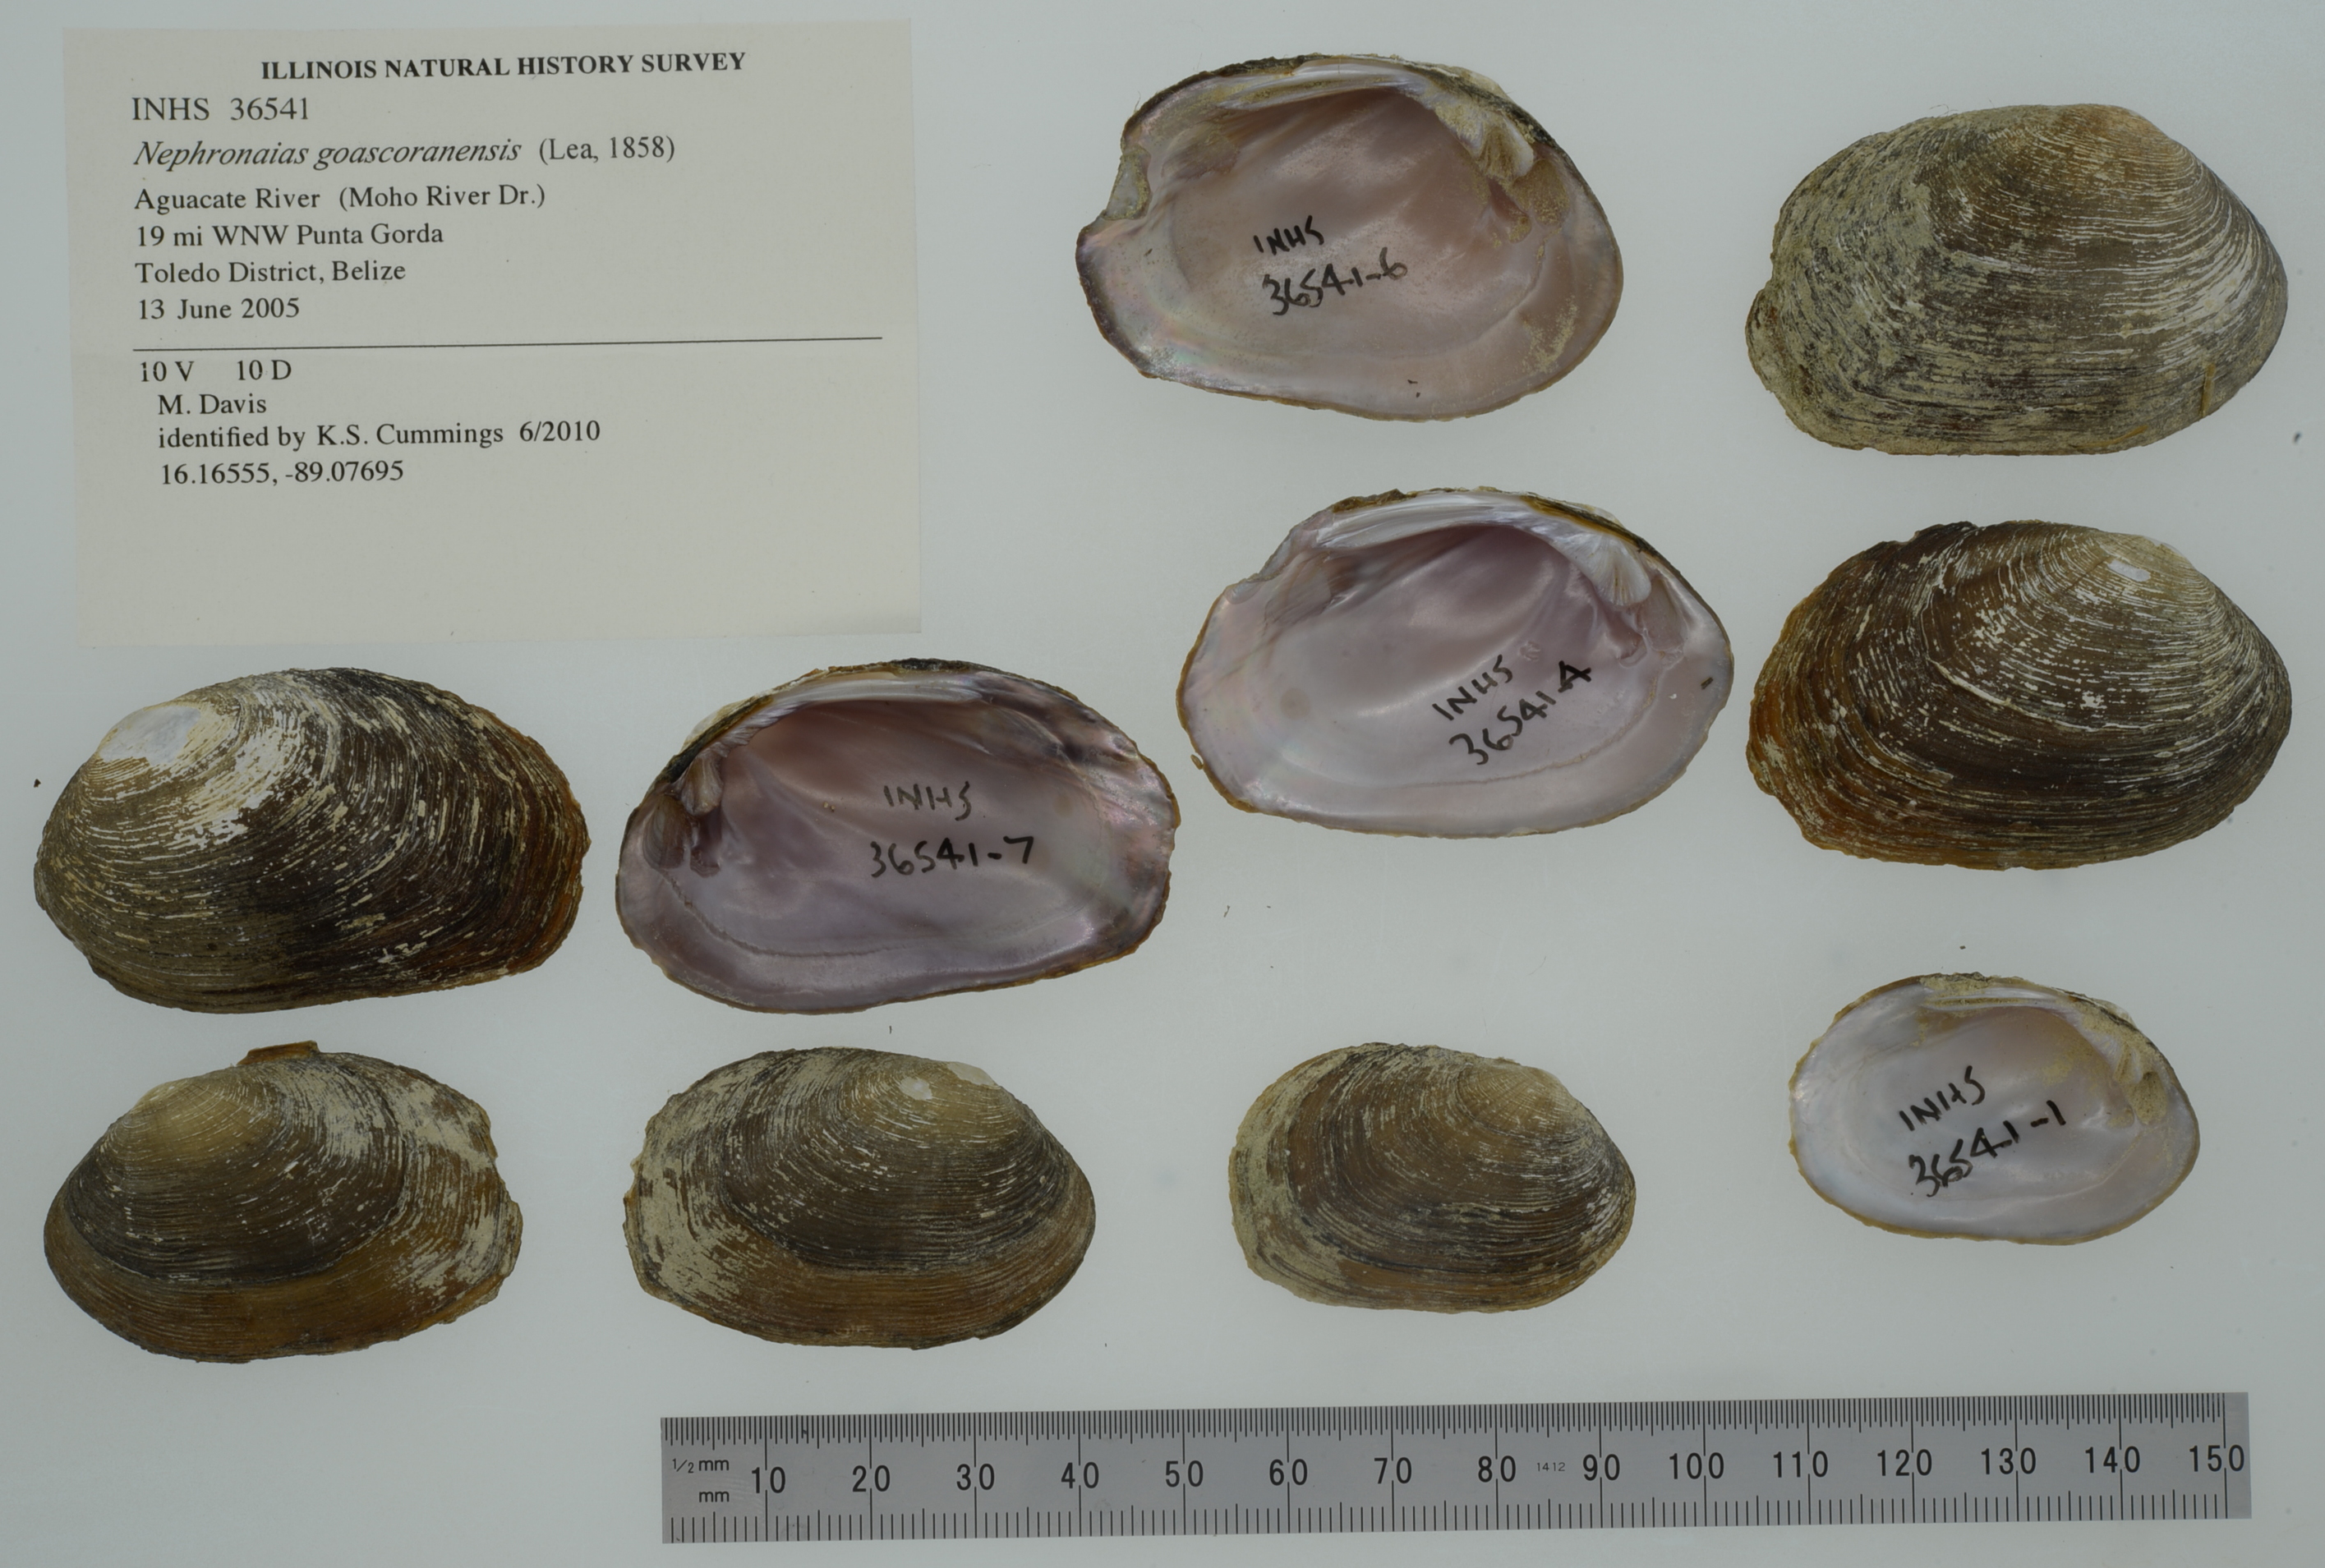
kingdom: Animalia
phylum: Mollusca
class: Bivalvia
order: Unionida
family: Unionidae
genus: Nephronaias
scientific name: Nephronaias dysonii
